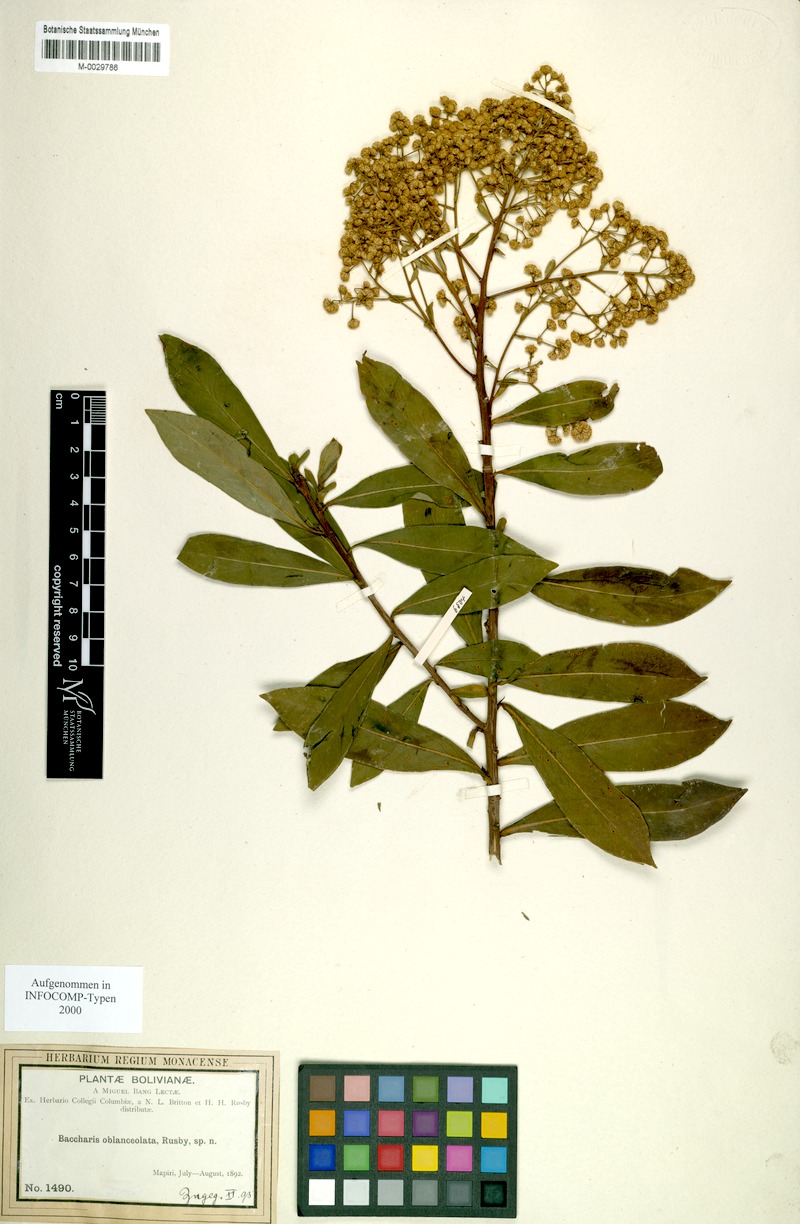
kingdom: Plantae
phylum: Tracheophyta
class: Magnoliopsida
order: Asterales
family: Asteraceae
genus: Baccharis
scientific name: Baccharis oblongifolia
